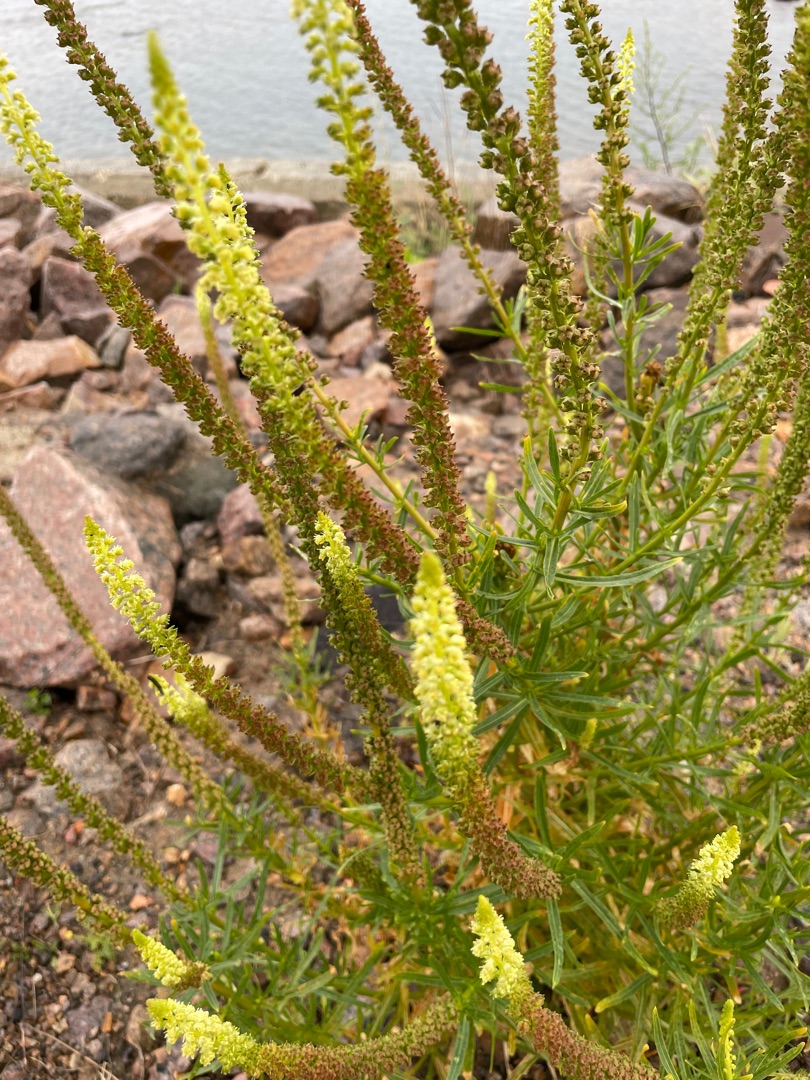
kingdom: Plantae
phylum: Tracheophyta
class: Magnoliopsida
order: Brassicales
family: Resedaceae
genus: Reseda
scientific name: Reseda luteola
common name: Farve-reseda
